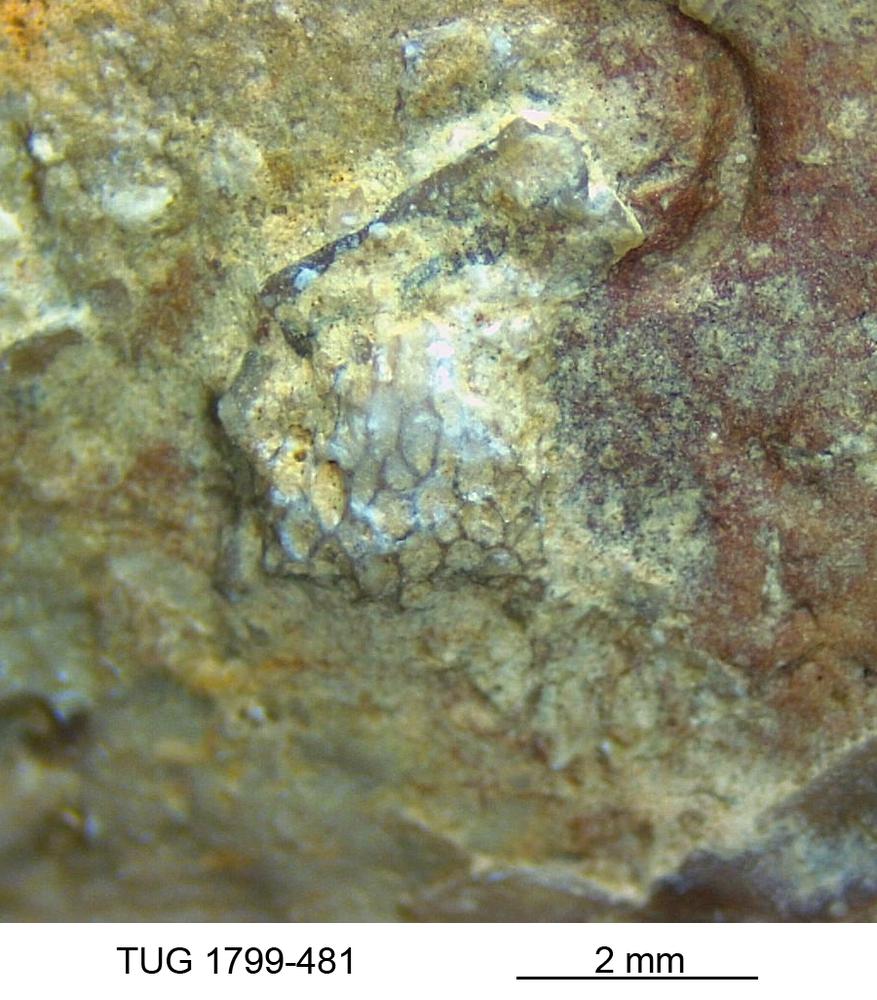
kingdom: Animalia
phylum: Bryozoa
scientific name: Bryozoa
